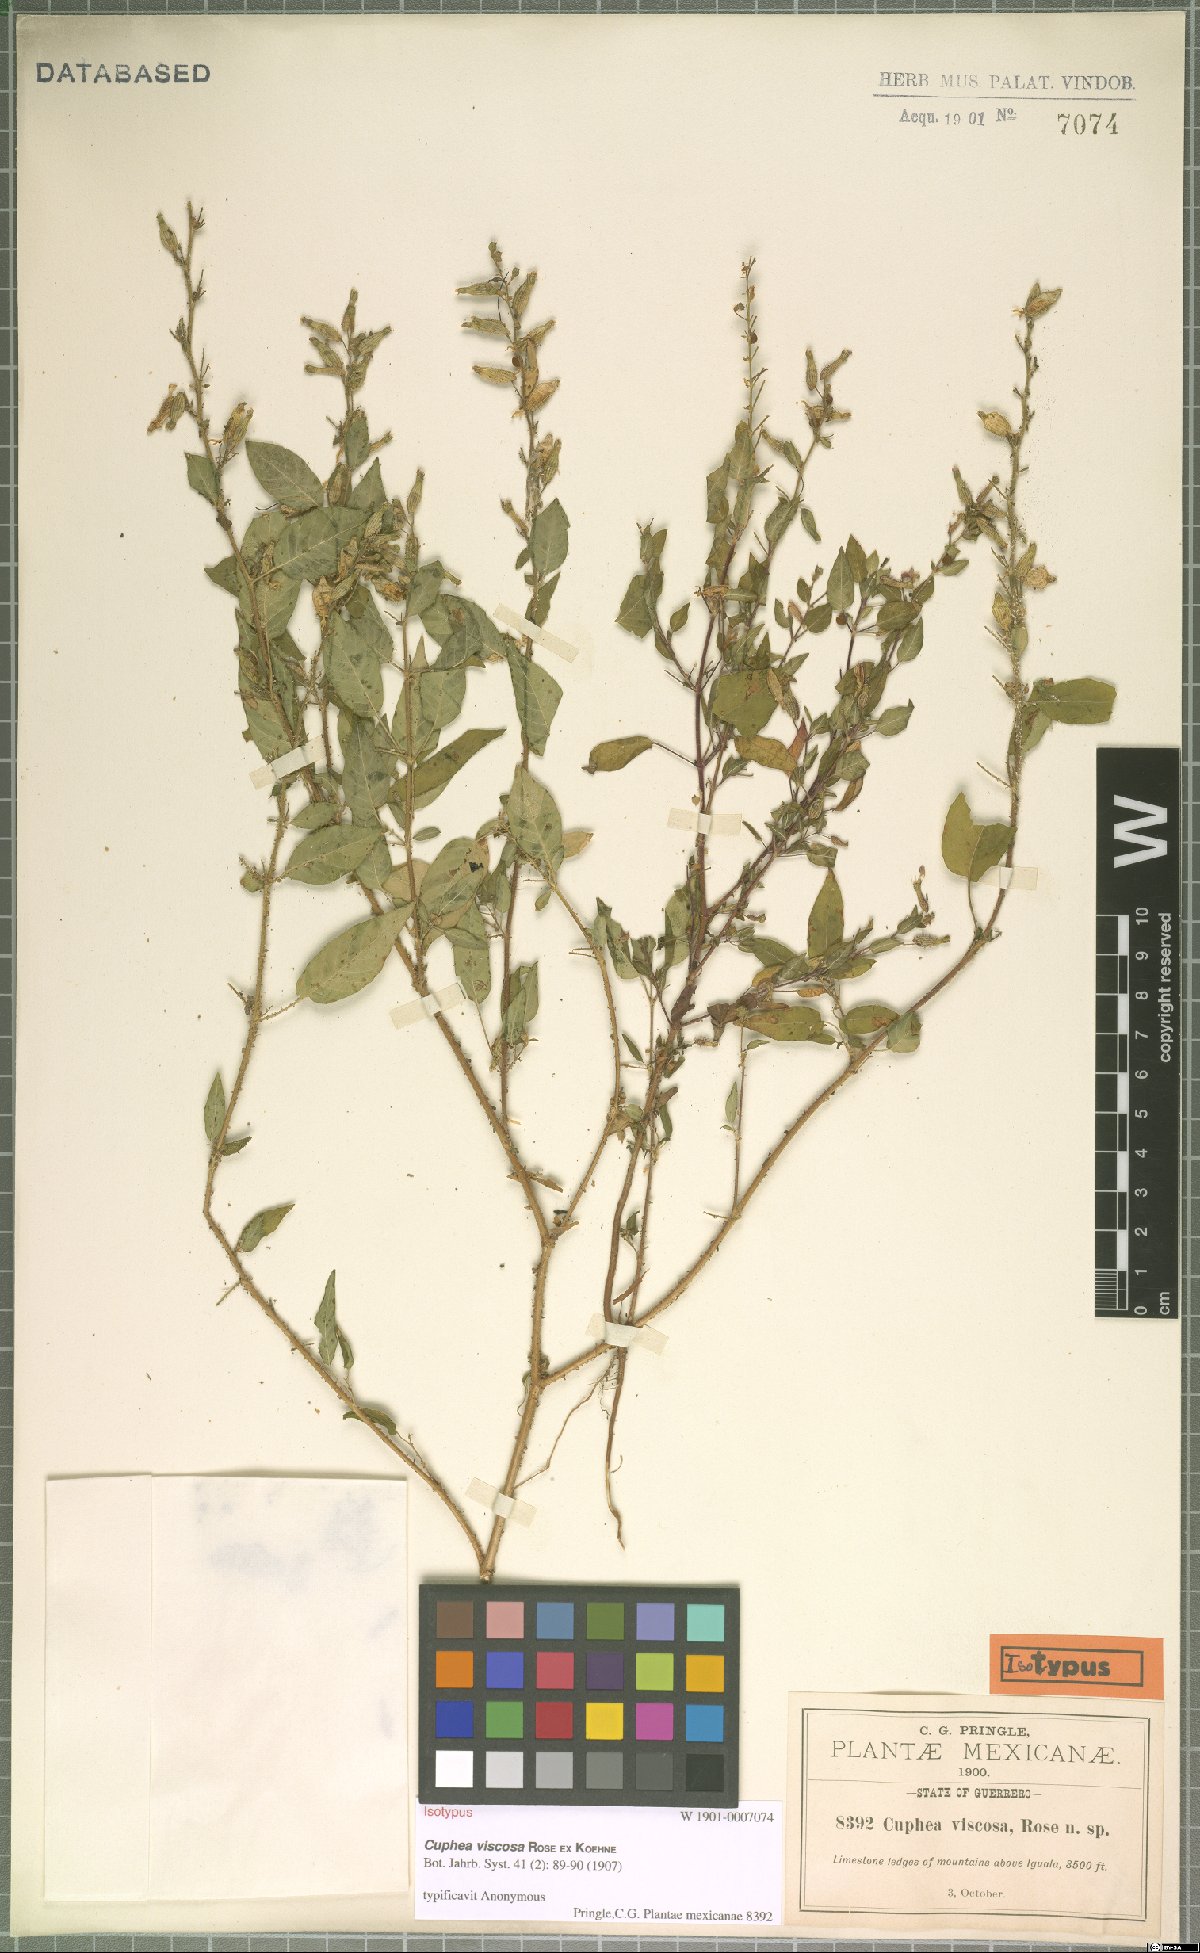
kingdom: Plantae
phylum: Tracheophyta
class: Magnoliopsida
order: Myrtales
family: Lythraceae
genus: Cuphea
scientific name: Cuphea viscosa
